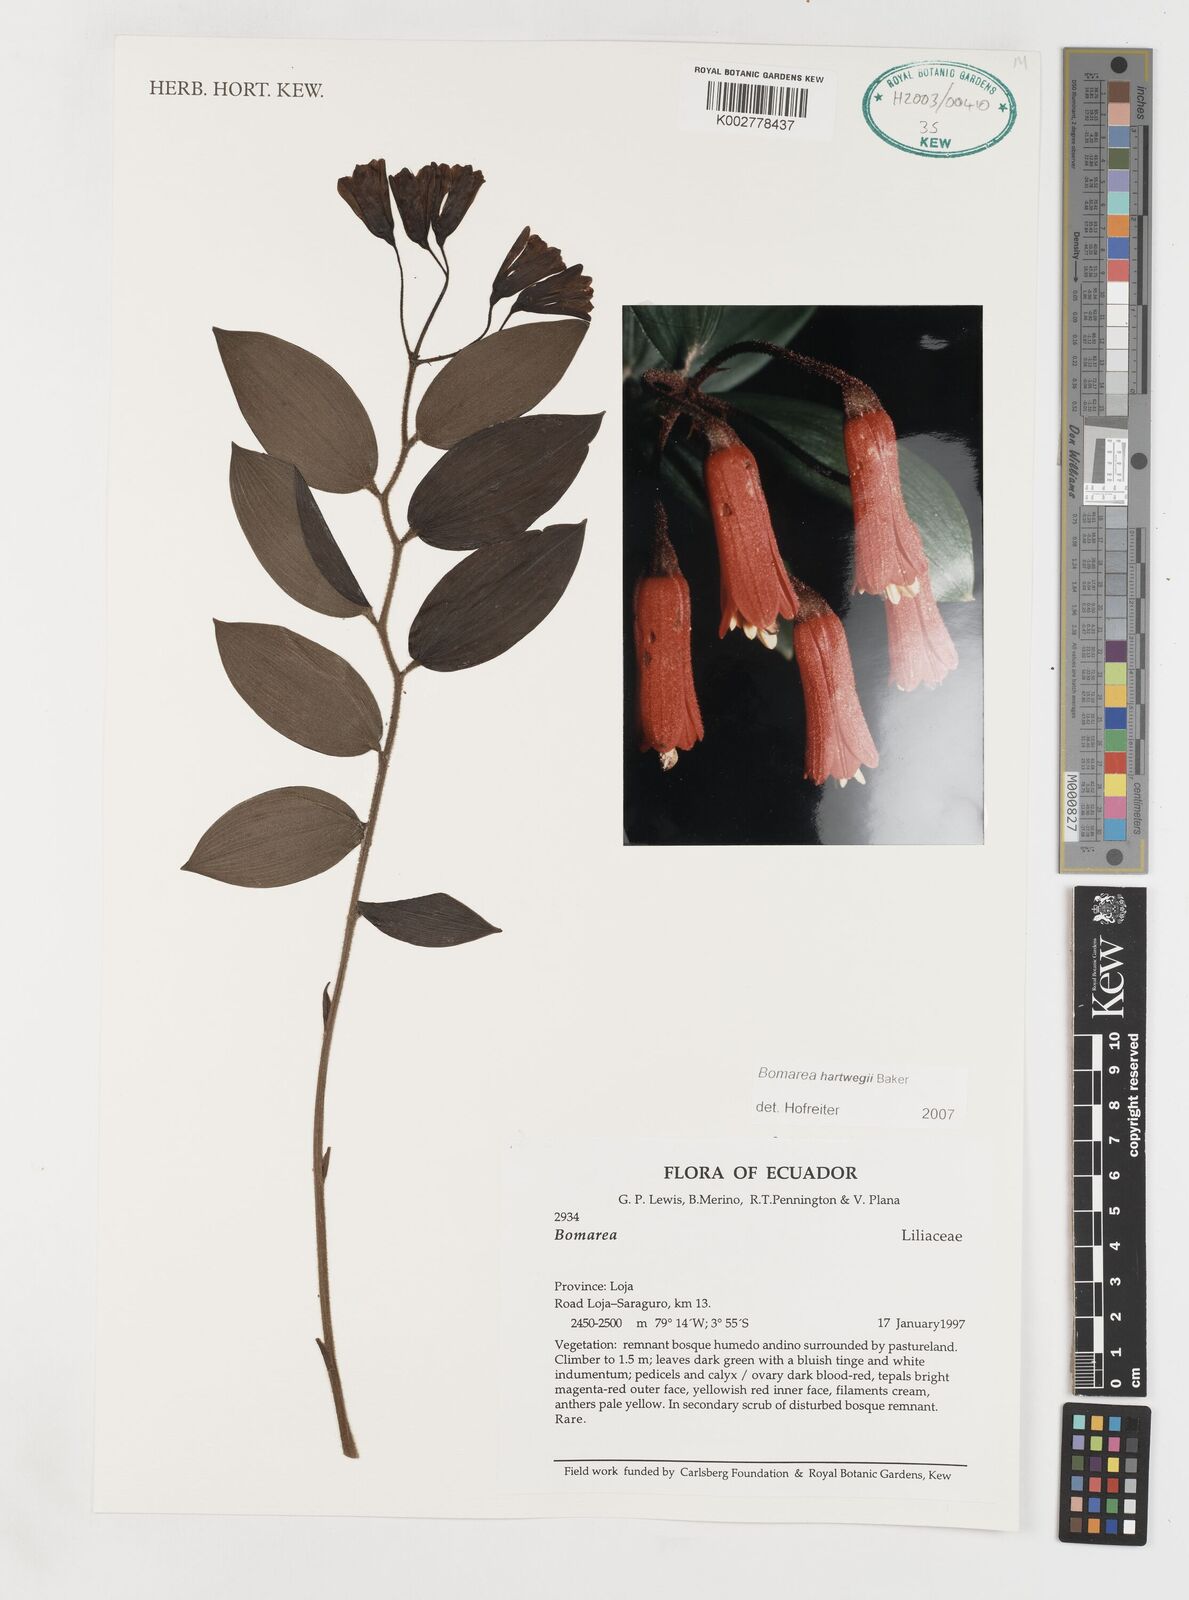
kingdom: Plantae
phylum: Tracheophyta
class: Liliopsida
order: Liliales
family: Alstroemeriaceae
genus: Bomarea
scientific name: Bomarea hartwegii
